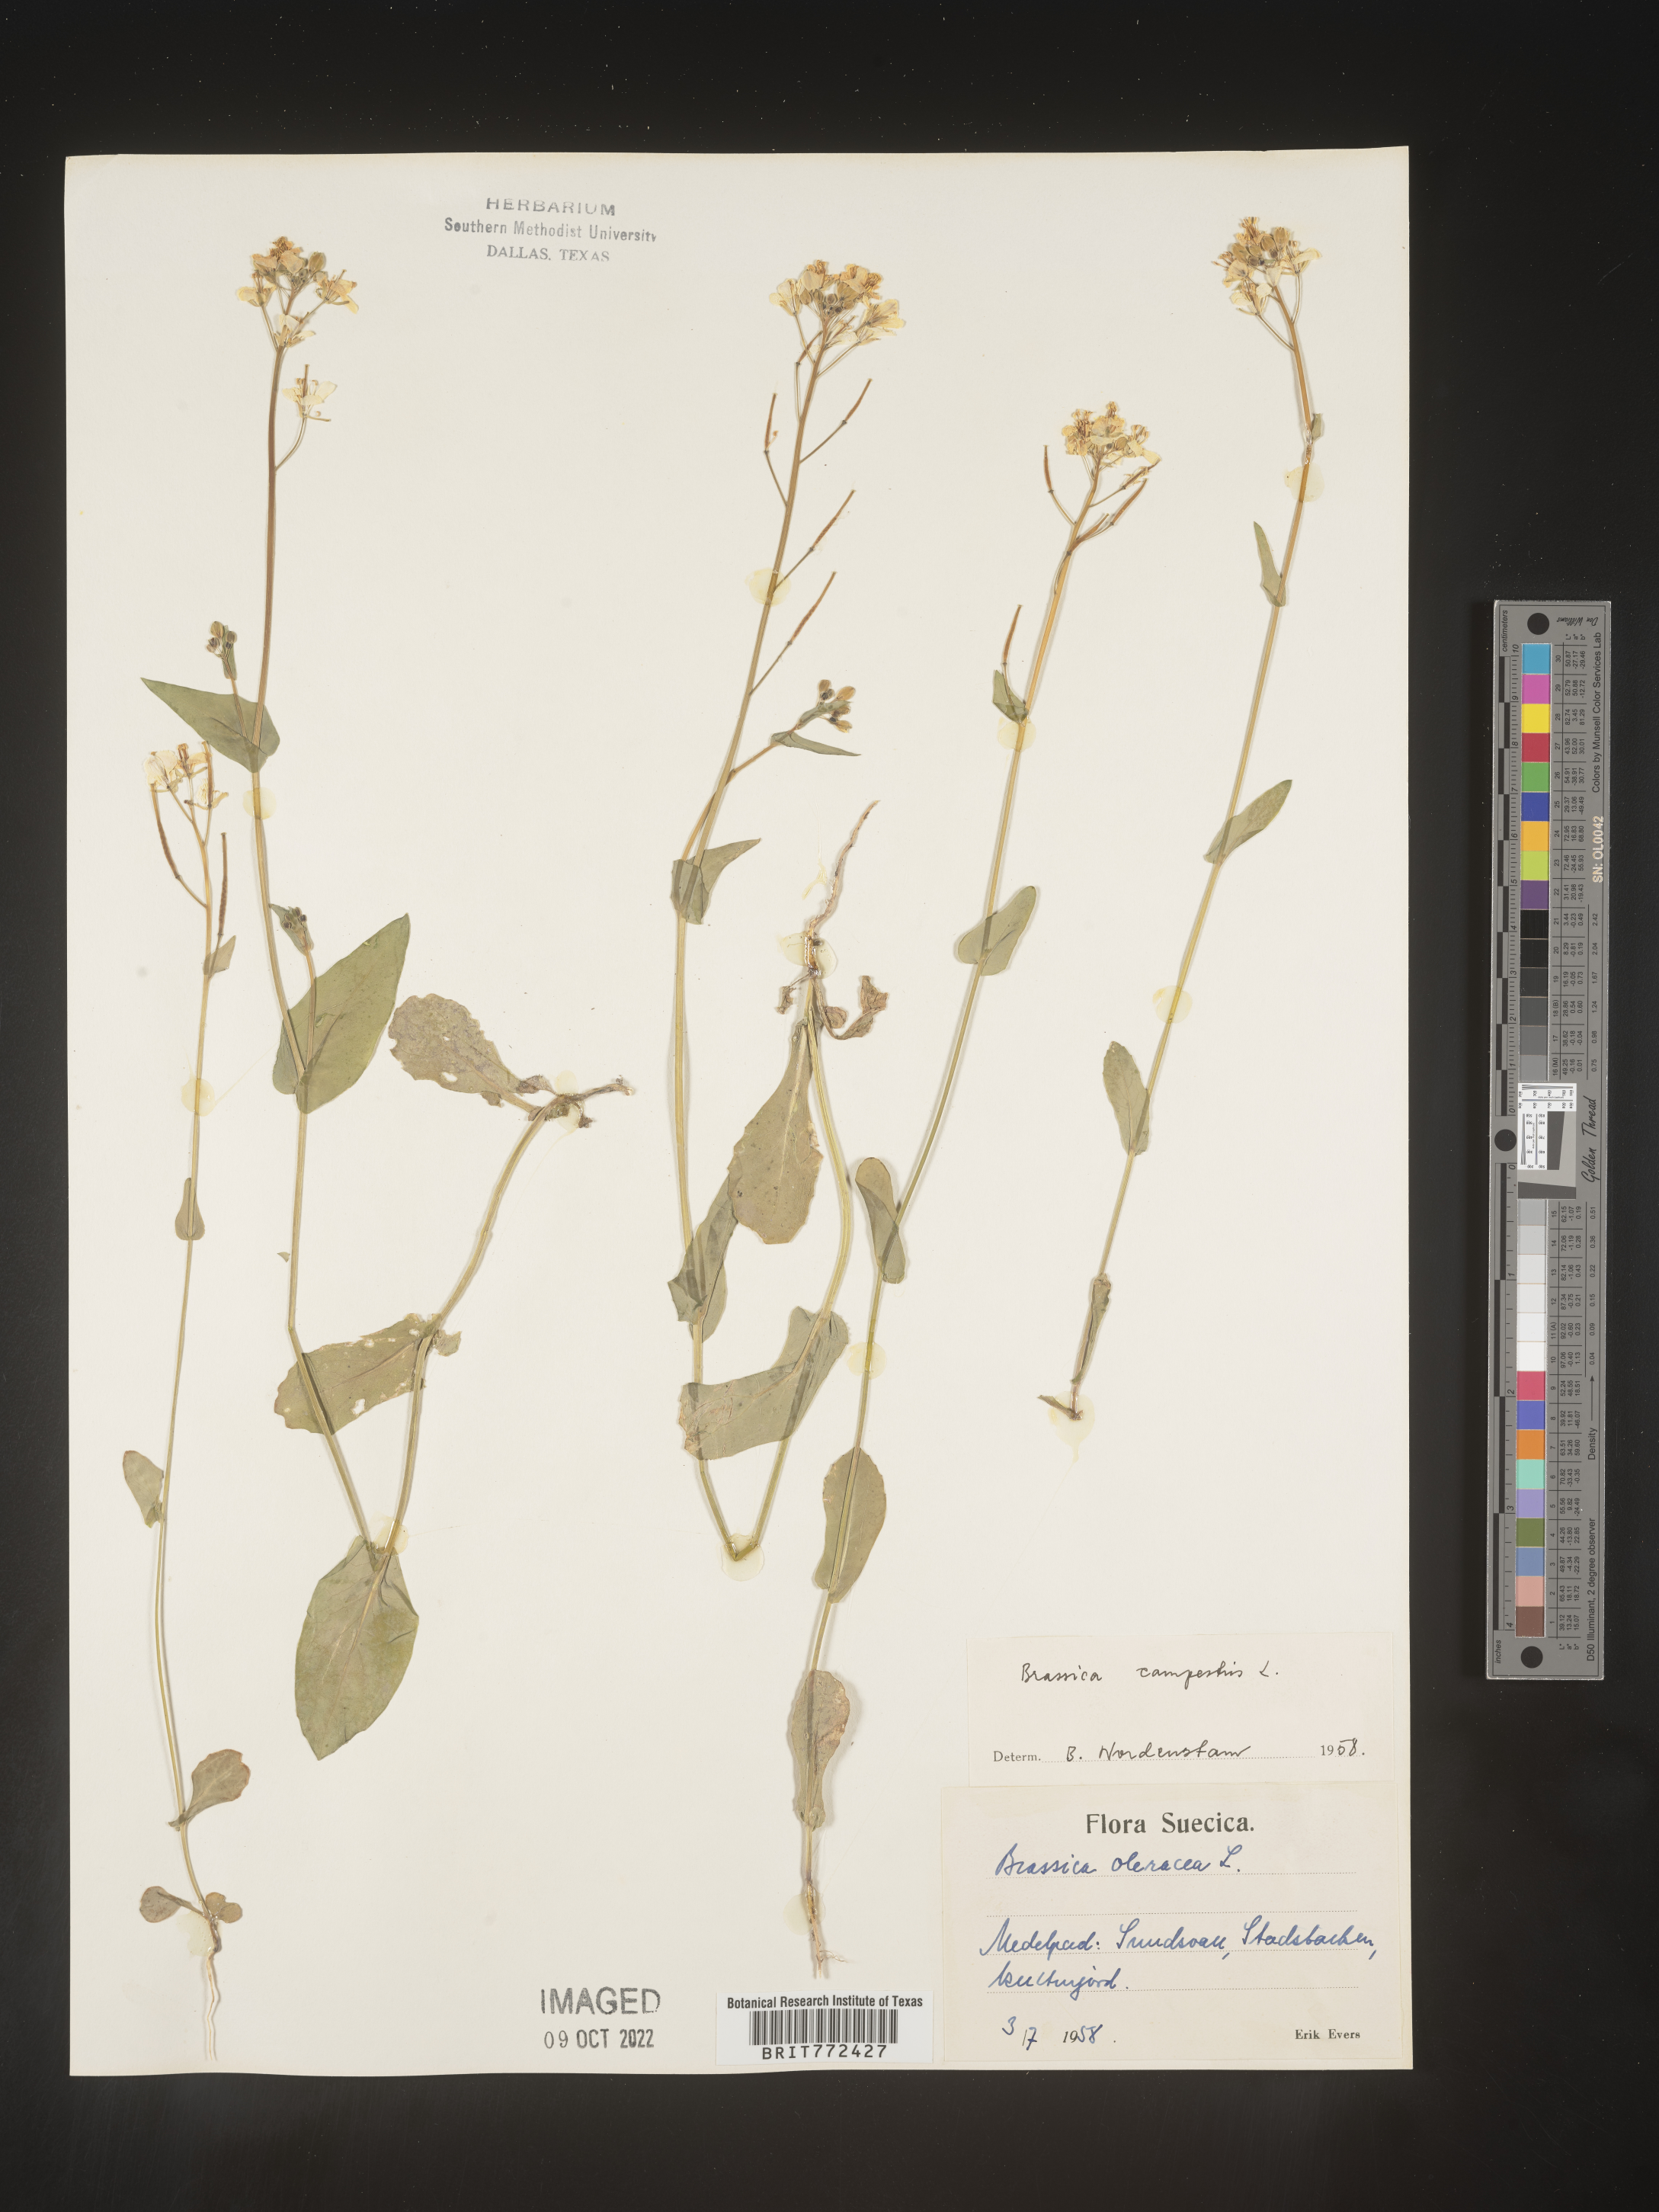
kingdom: Plantae
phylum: Tracheophyta
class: Magnoliopsida
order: Brassicales
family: Brassicaceae
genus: Brassica
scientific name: Brassica
